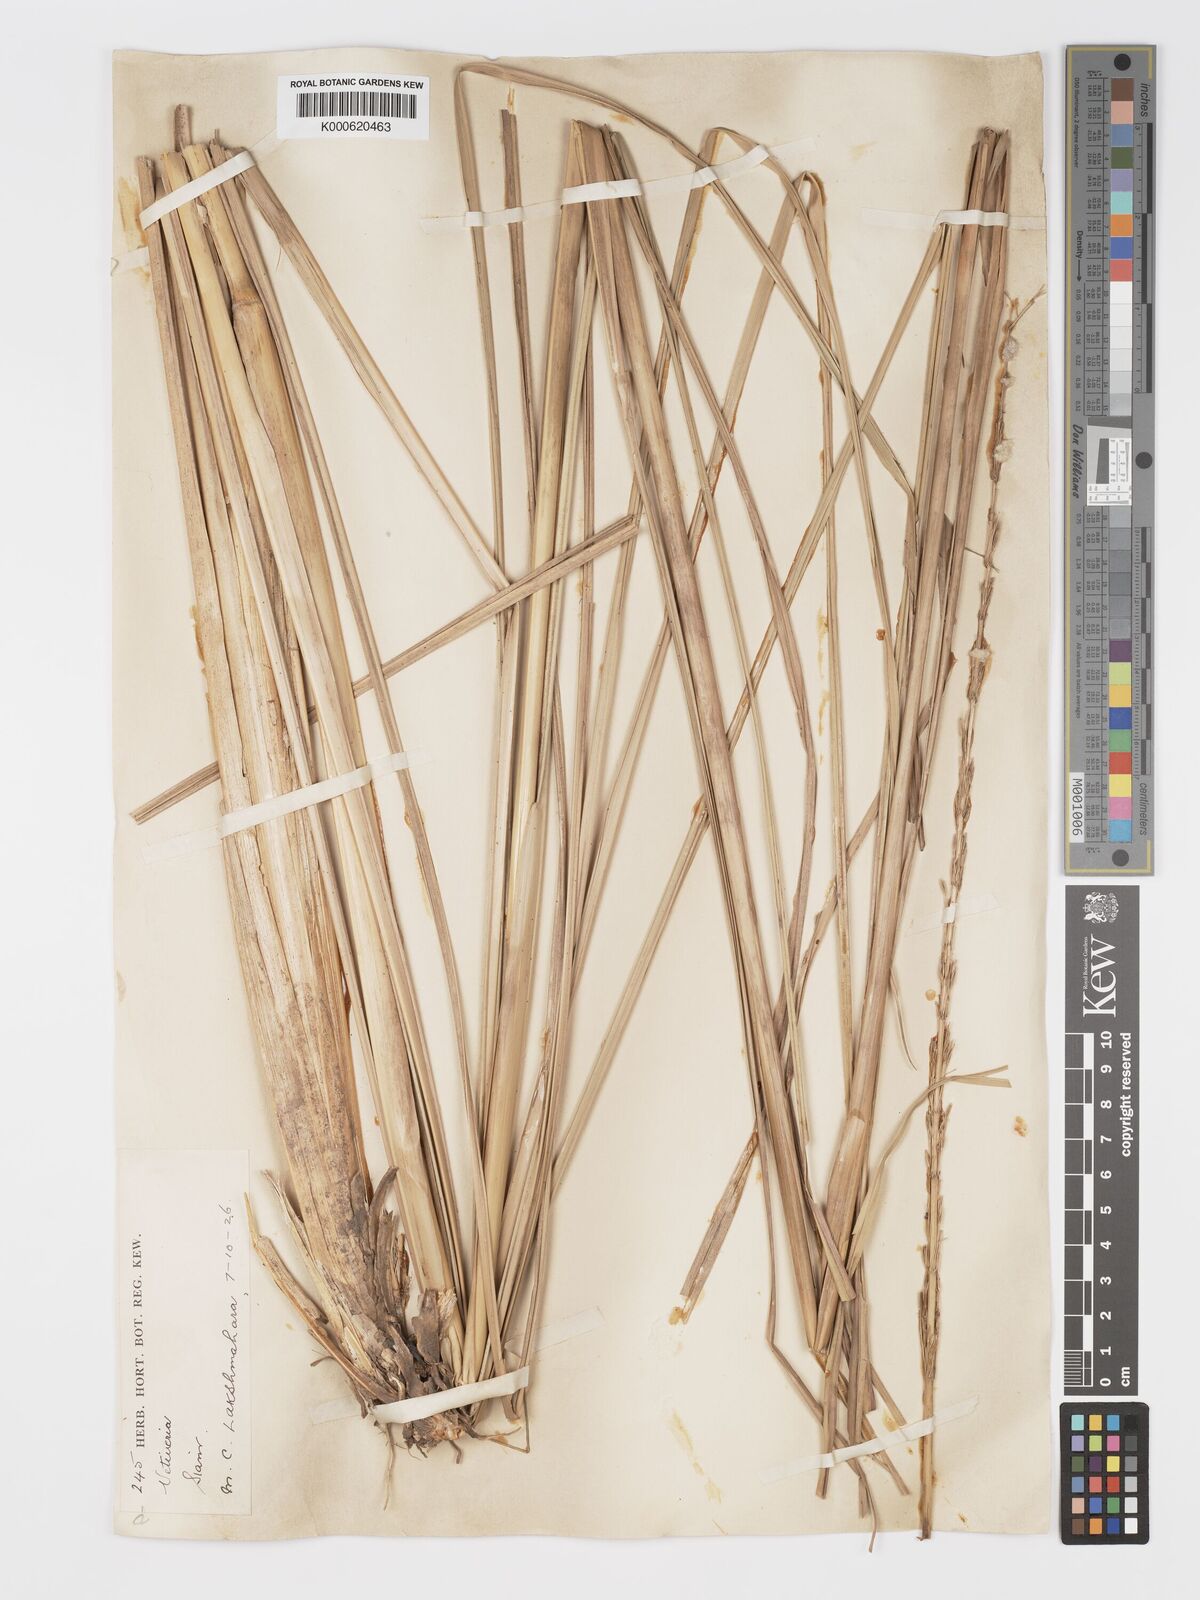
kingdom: Plantae
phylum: Tracheophyta
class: Liliopsida
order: Poales
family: Poaceae
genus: Chrysopogon
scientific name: Chrysopogon zizanioides
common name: False beardgrass
